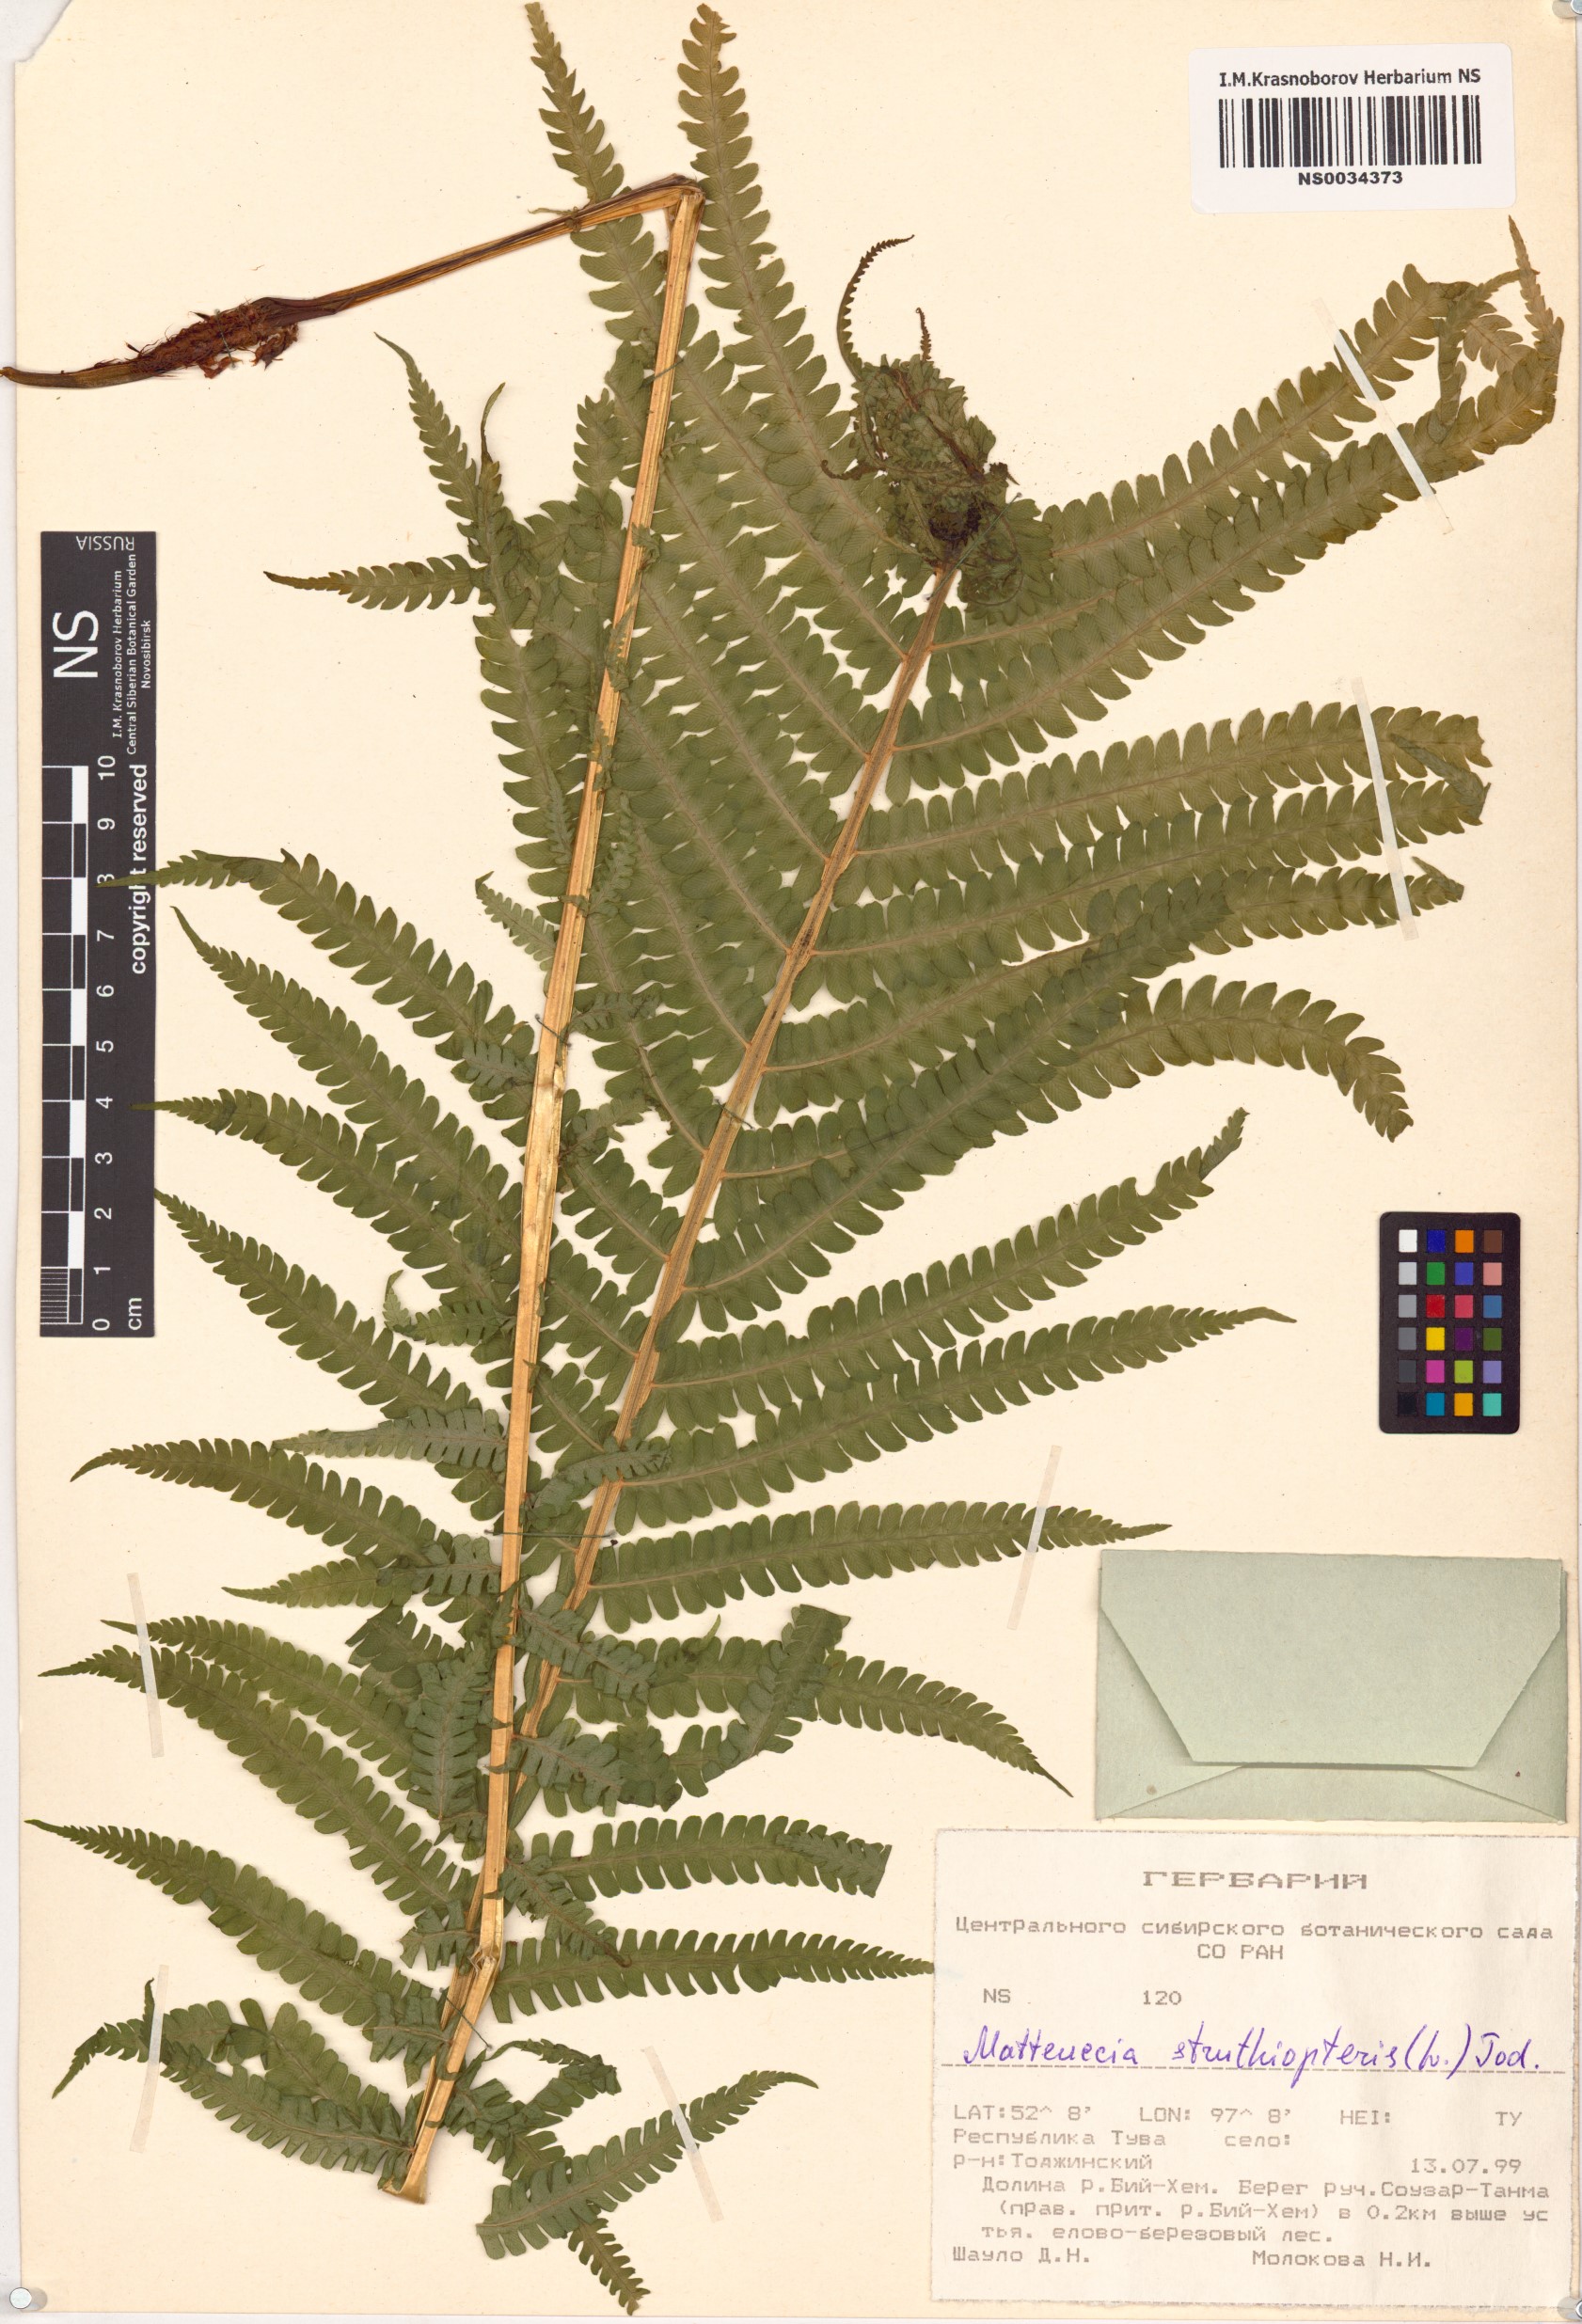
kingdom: Plantae
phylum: Tracheophyta
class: Polypodiopsida
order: Polypodiales
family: Onocleaceae
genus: Matteuccia
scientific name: Matteuccia struthiopteris
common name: Ostrich fern
